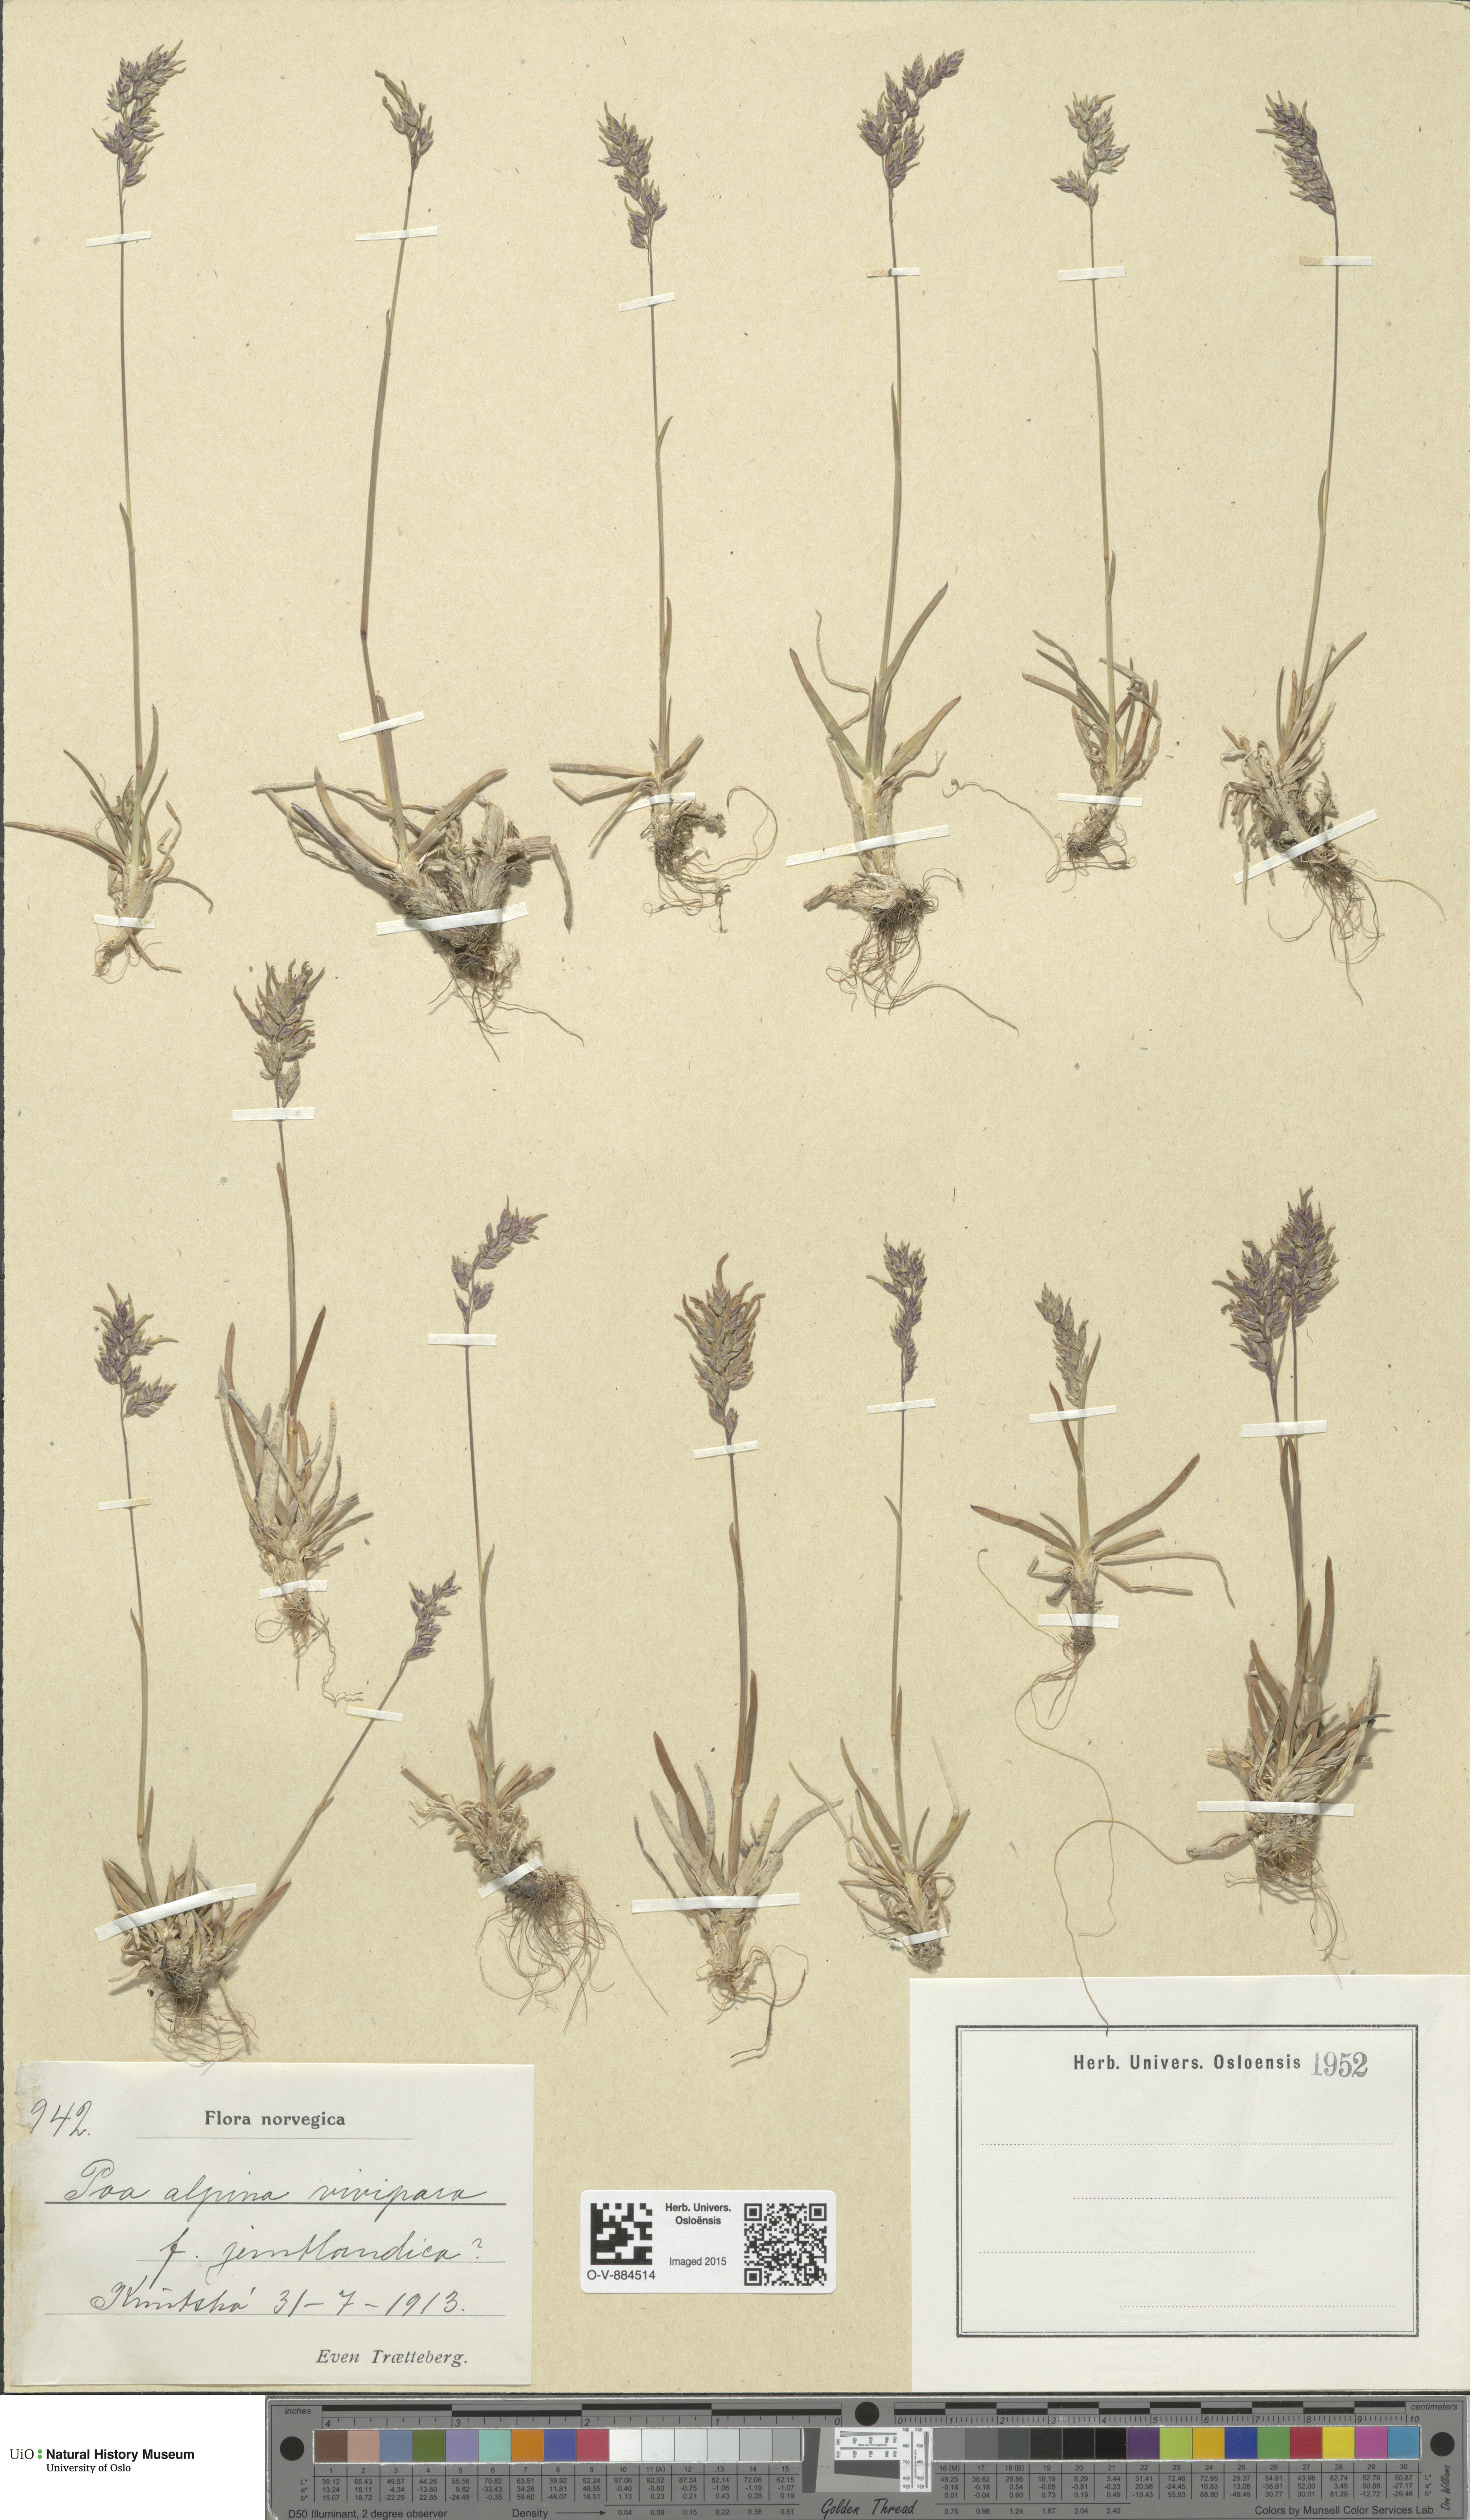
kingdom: Plantae
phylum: Tracheophyta
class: Liliopsida
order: Poales
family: Poaceae
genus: Poa
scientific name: Poa alpina
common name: Alpine bluegrass
